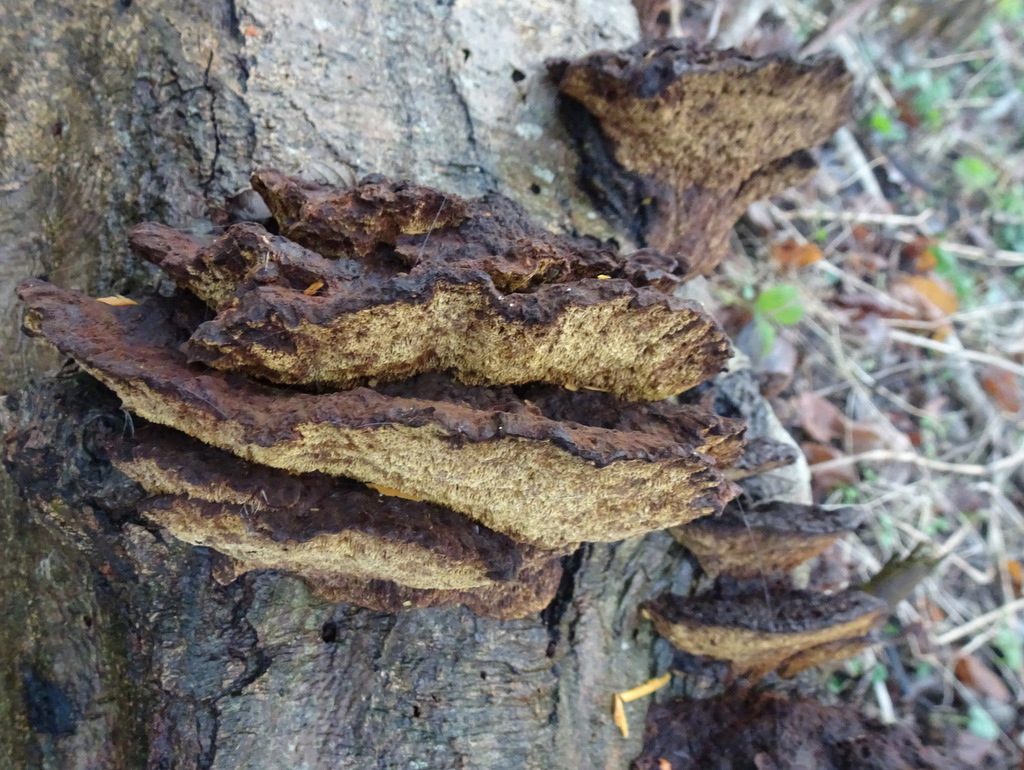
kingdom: Fungi
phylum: Basidiomycota
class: Agaricomycetes
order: Hymenochaetales
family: Hymenochaetaceae
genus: Xanthoporia
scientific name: Xanthoporia radiata
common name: elle-spejlporesvamp
